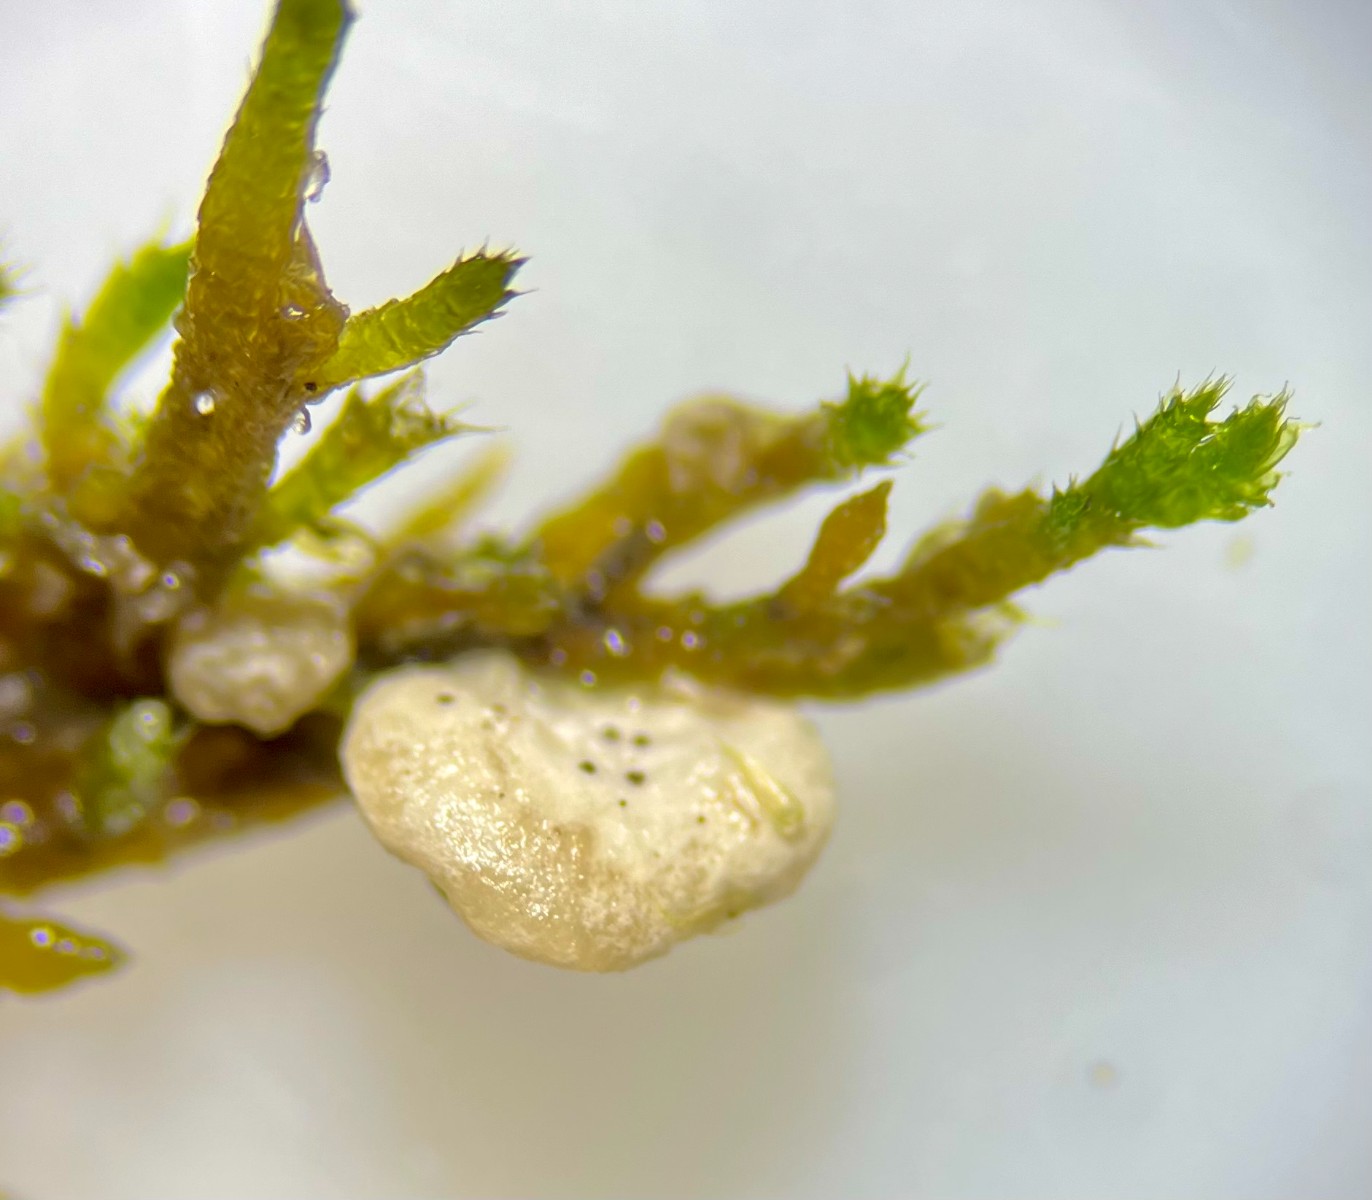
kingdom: Fungi
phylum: Basidiomycota
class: Agaricomycetes
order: Agaricales
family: Entolomataceae
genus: Clitopilus
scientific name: Clitopilus
